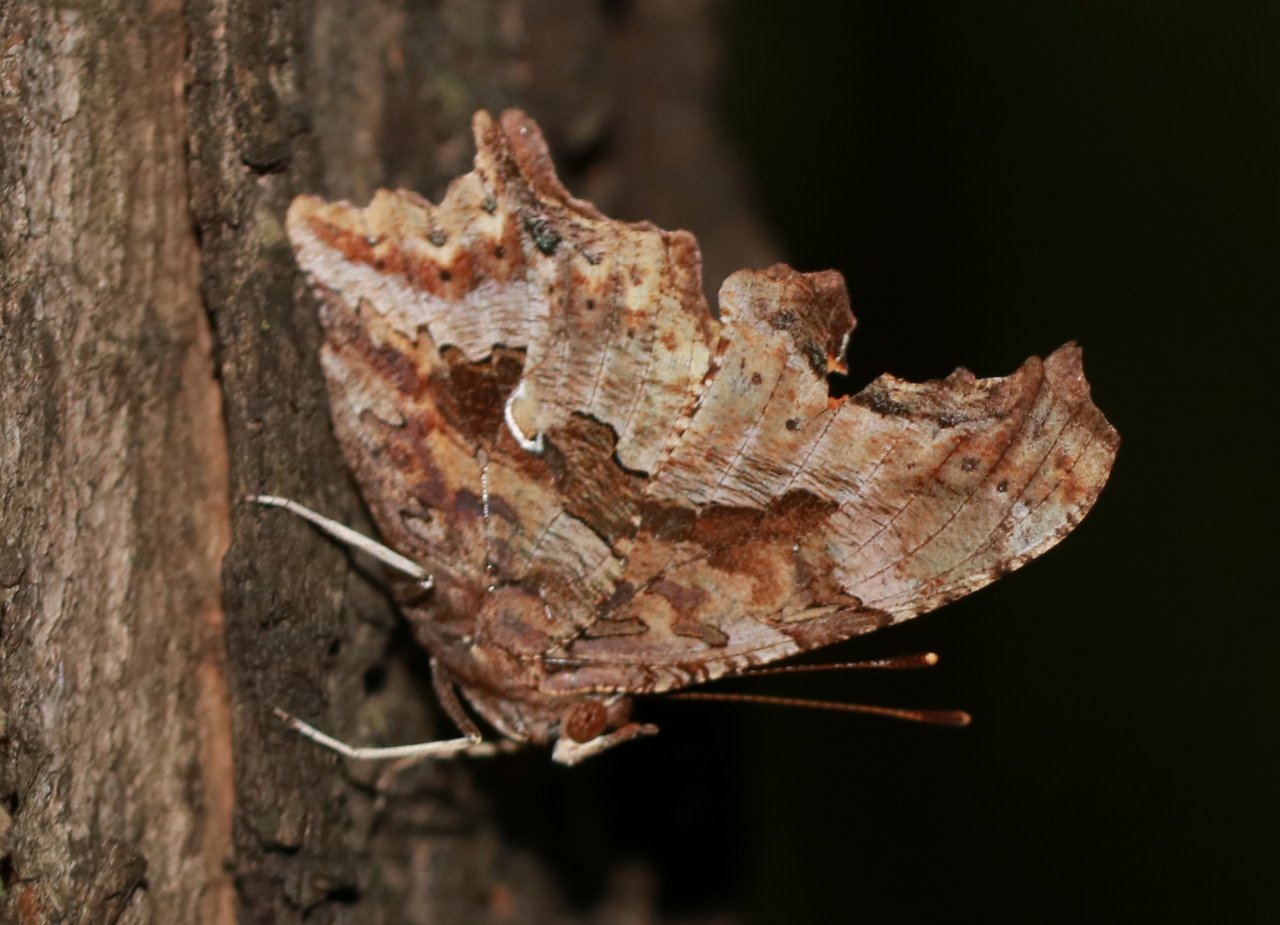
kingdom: Animalia
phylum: Arthropoda
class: Insecta
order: Lepidoptera
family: Nymphalidae
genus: Polygonia
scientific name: Polygonia comma
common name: Eastern Comma
